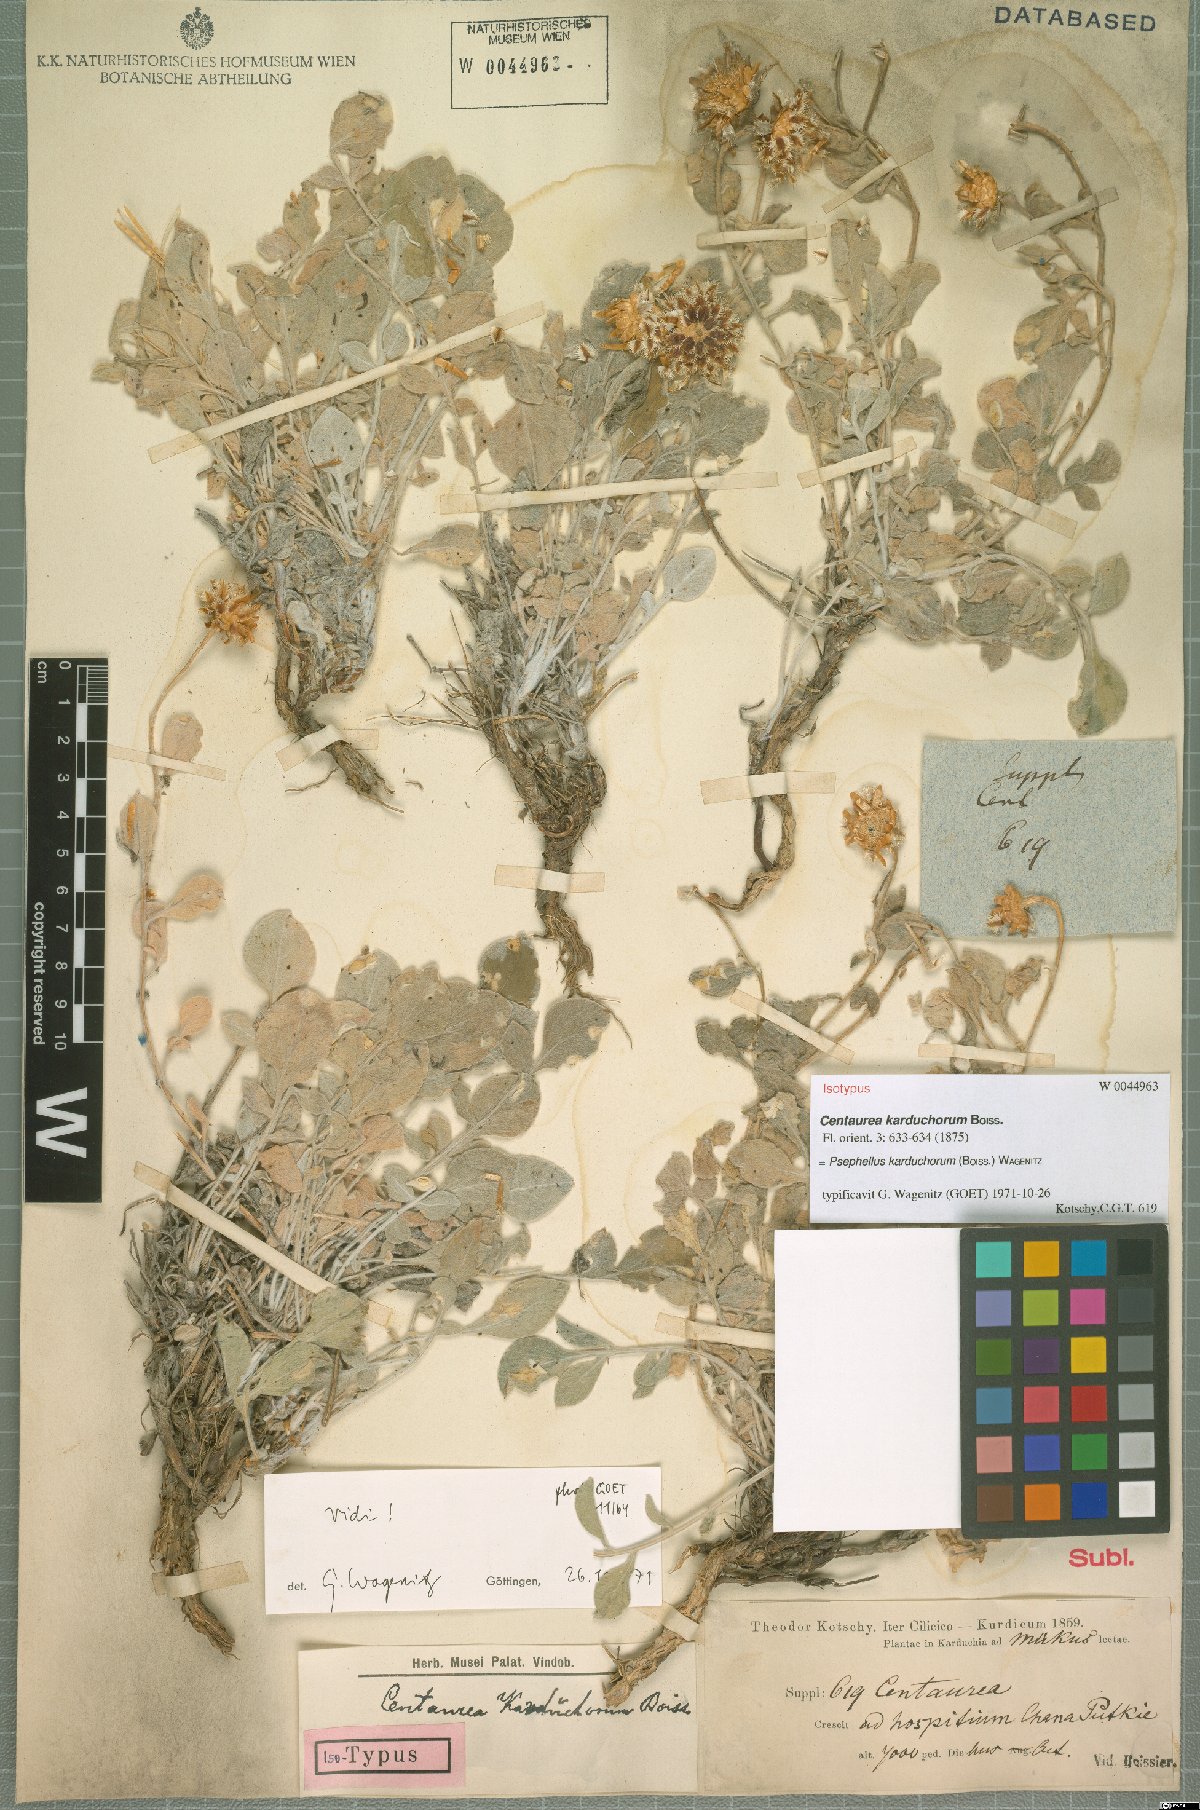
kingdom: Plantae
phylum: Tracheophyta
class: Magnoliopsida
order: Asterales
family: Asteraceae
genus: Psephellus
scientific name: Psephellus karduchorum
